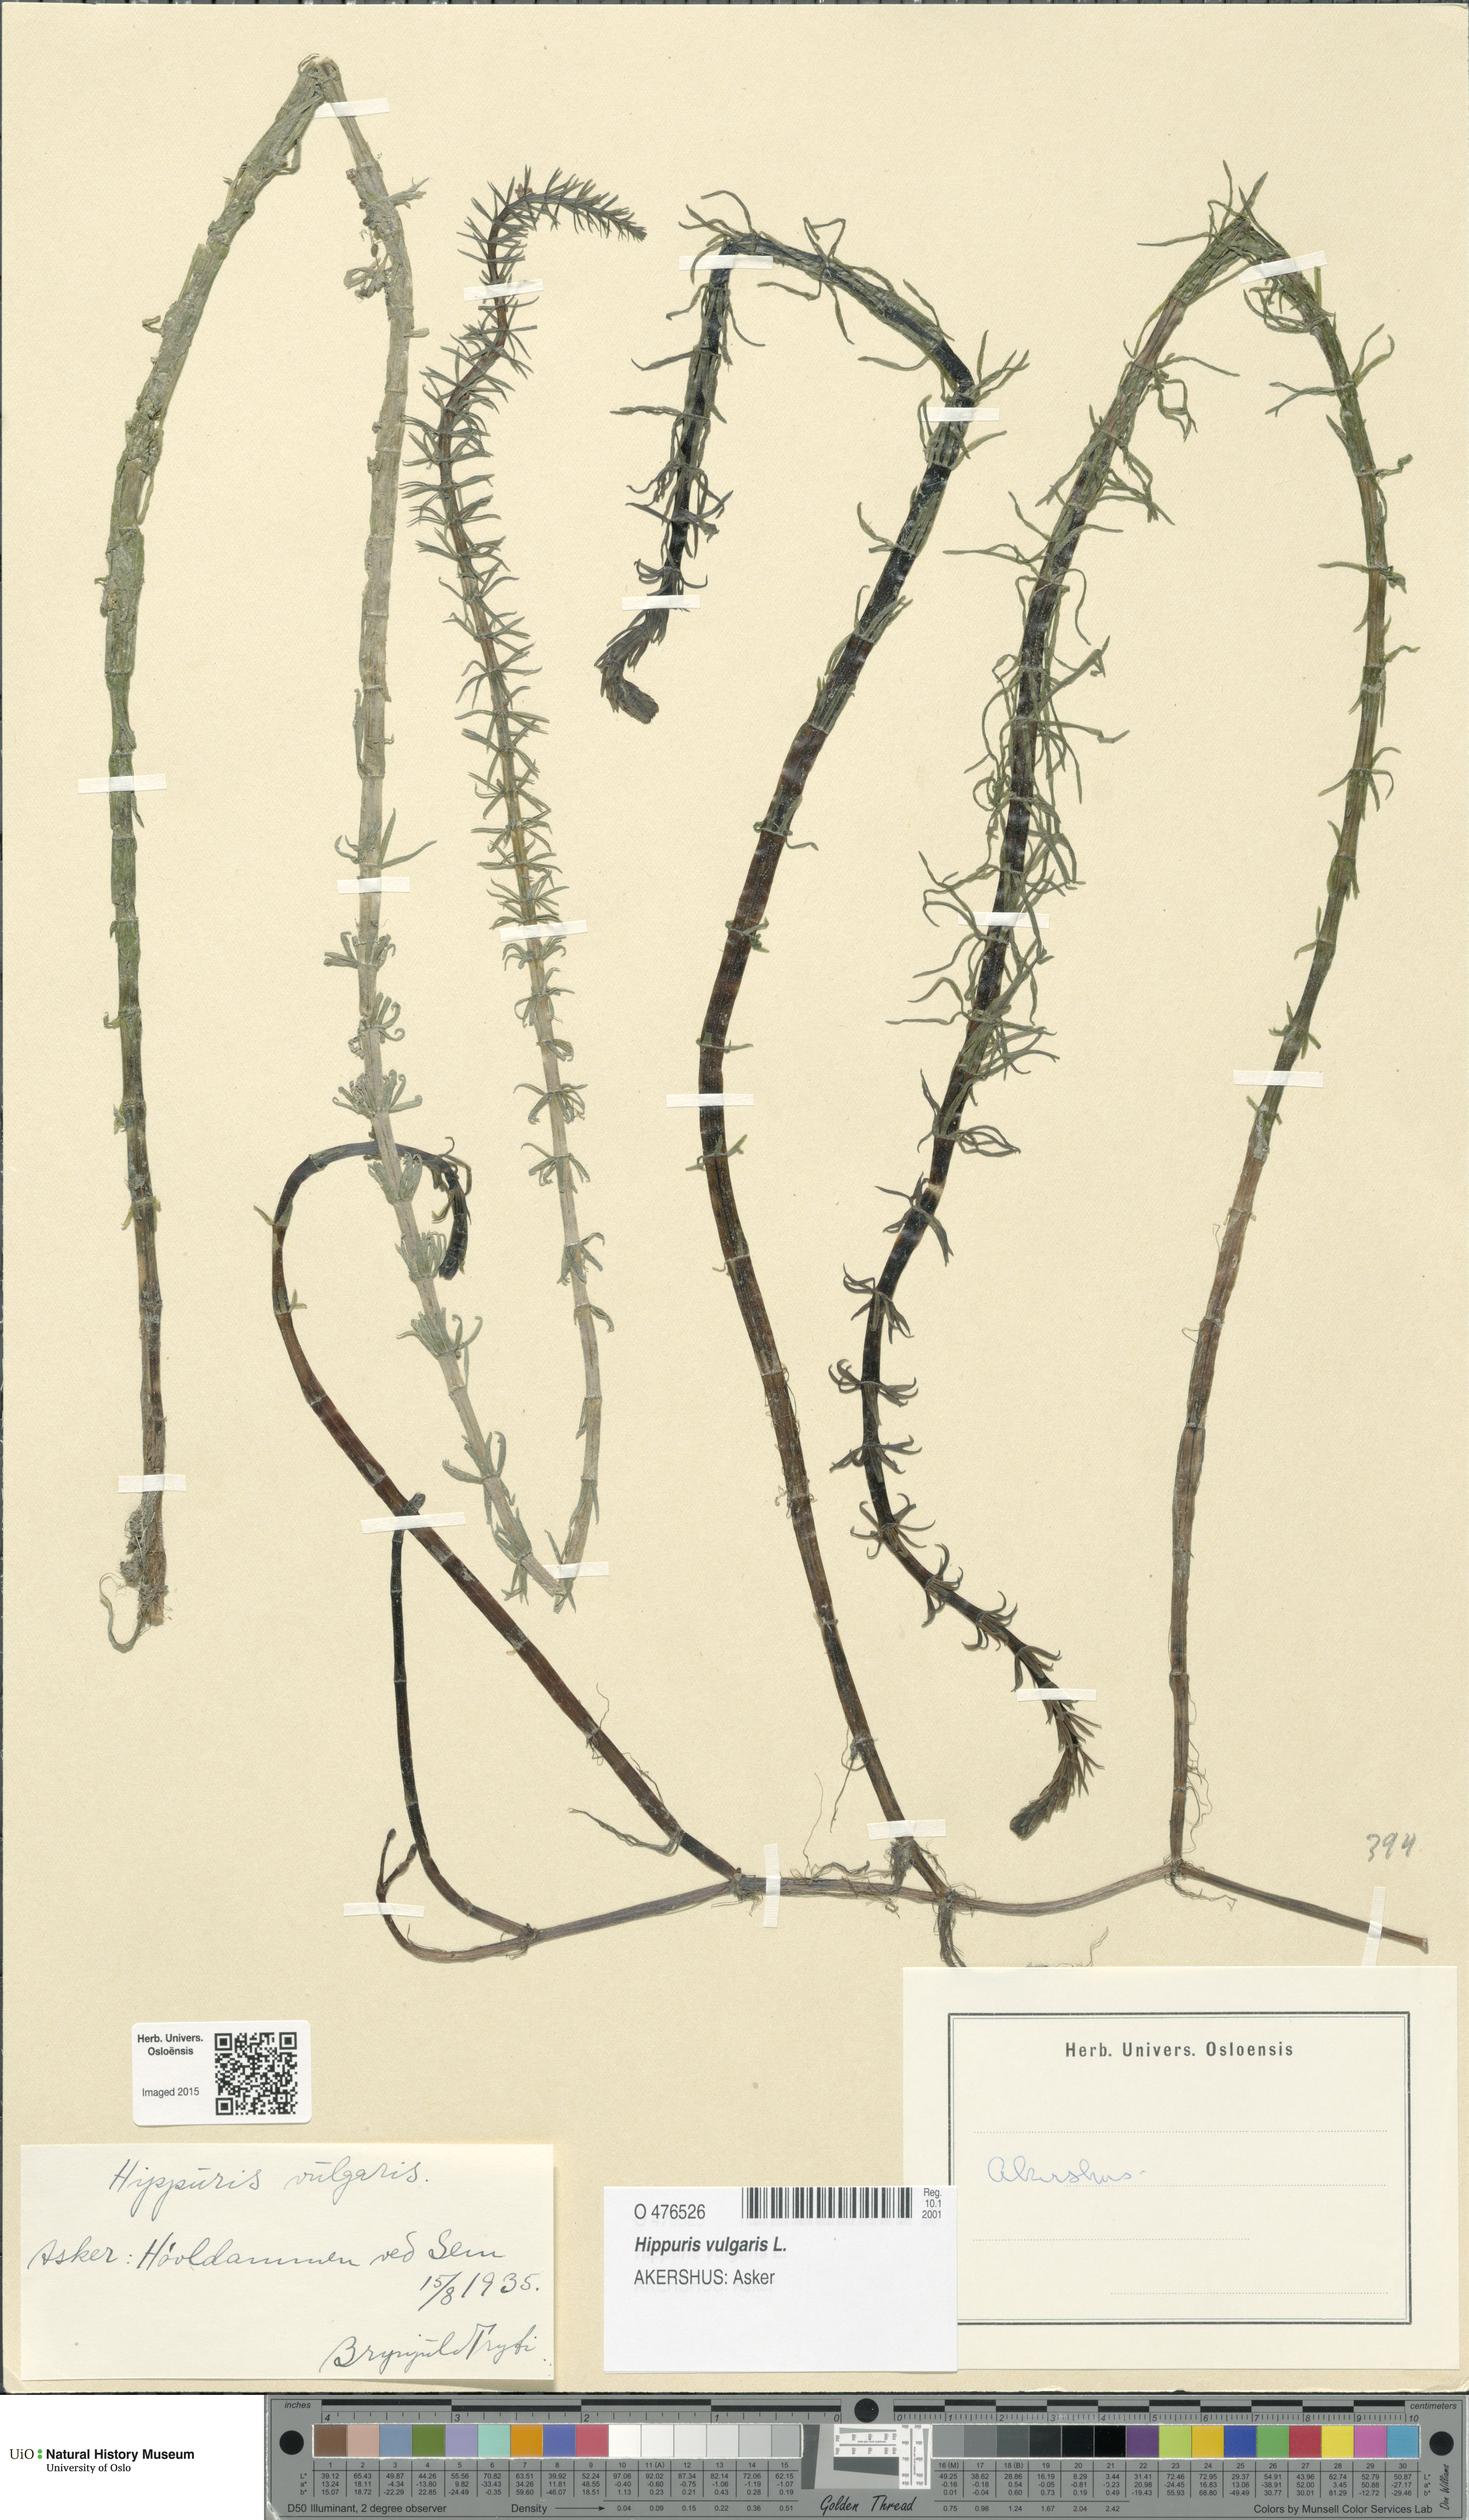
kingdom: Plantae
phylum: Tracheophyta
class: Magnoliopsida
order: Lamiales
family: Plantaginaceae
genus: Hippuris
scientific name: Hippuris vulgaris
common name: Mare's-tail
